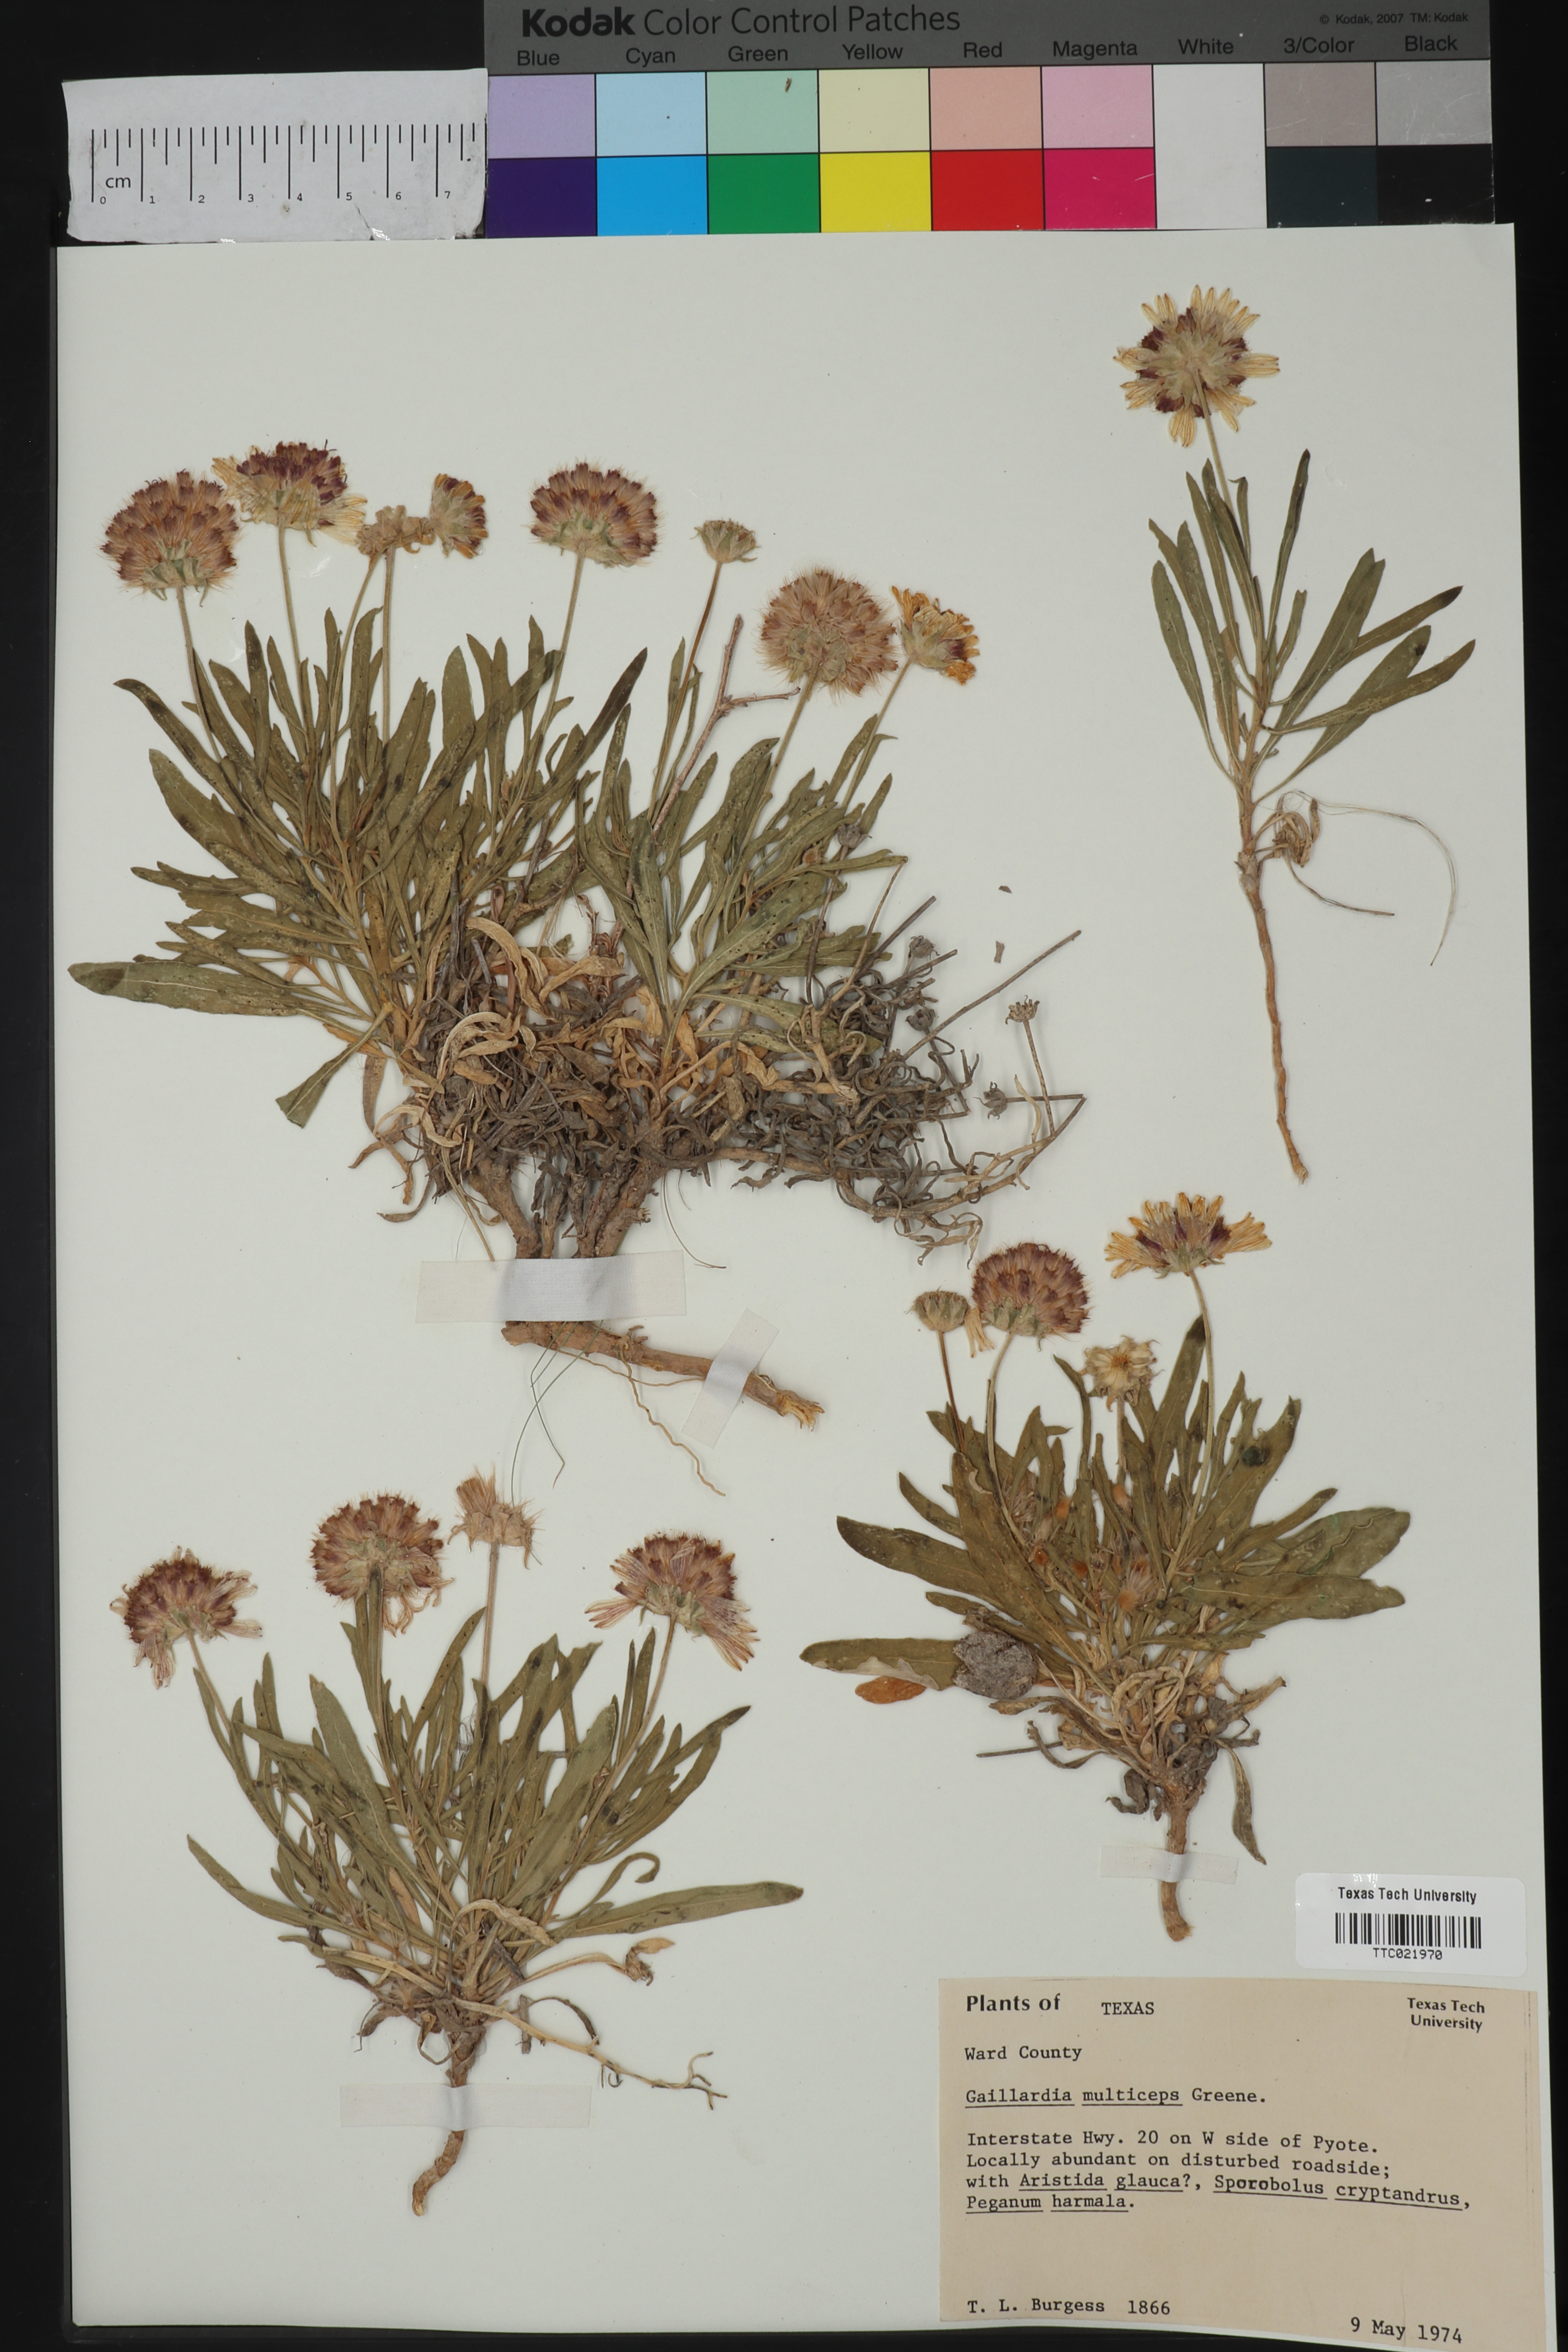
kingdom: Plantae
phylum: Tracheophyta
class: Magnoliopsida
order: Asterales
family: Asteraceae
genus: Gaillardia
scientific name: Gaillardia multiceps
